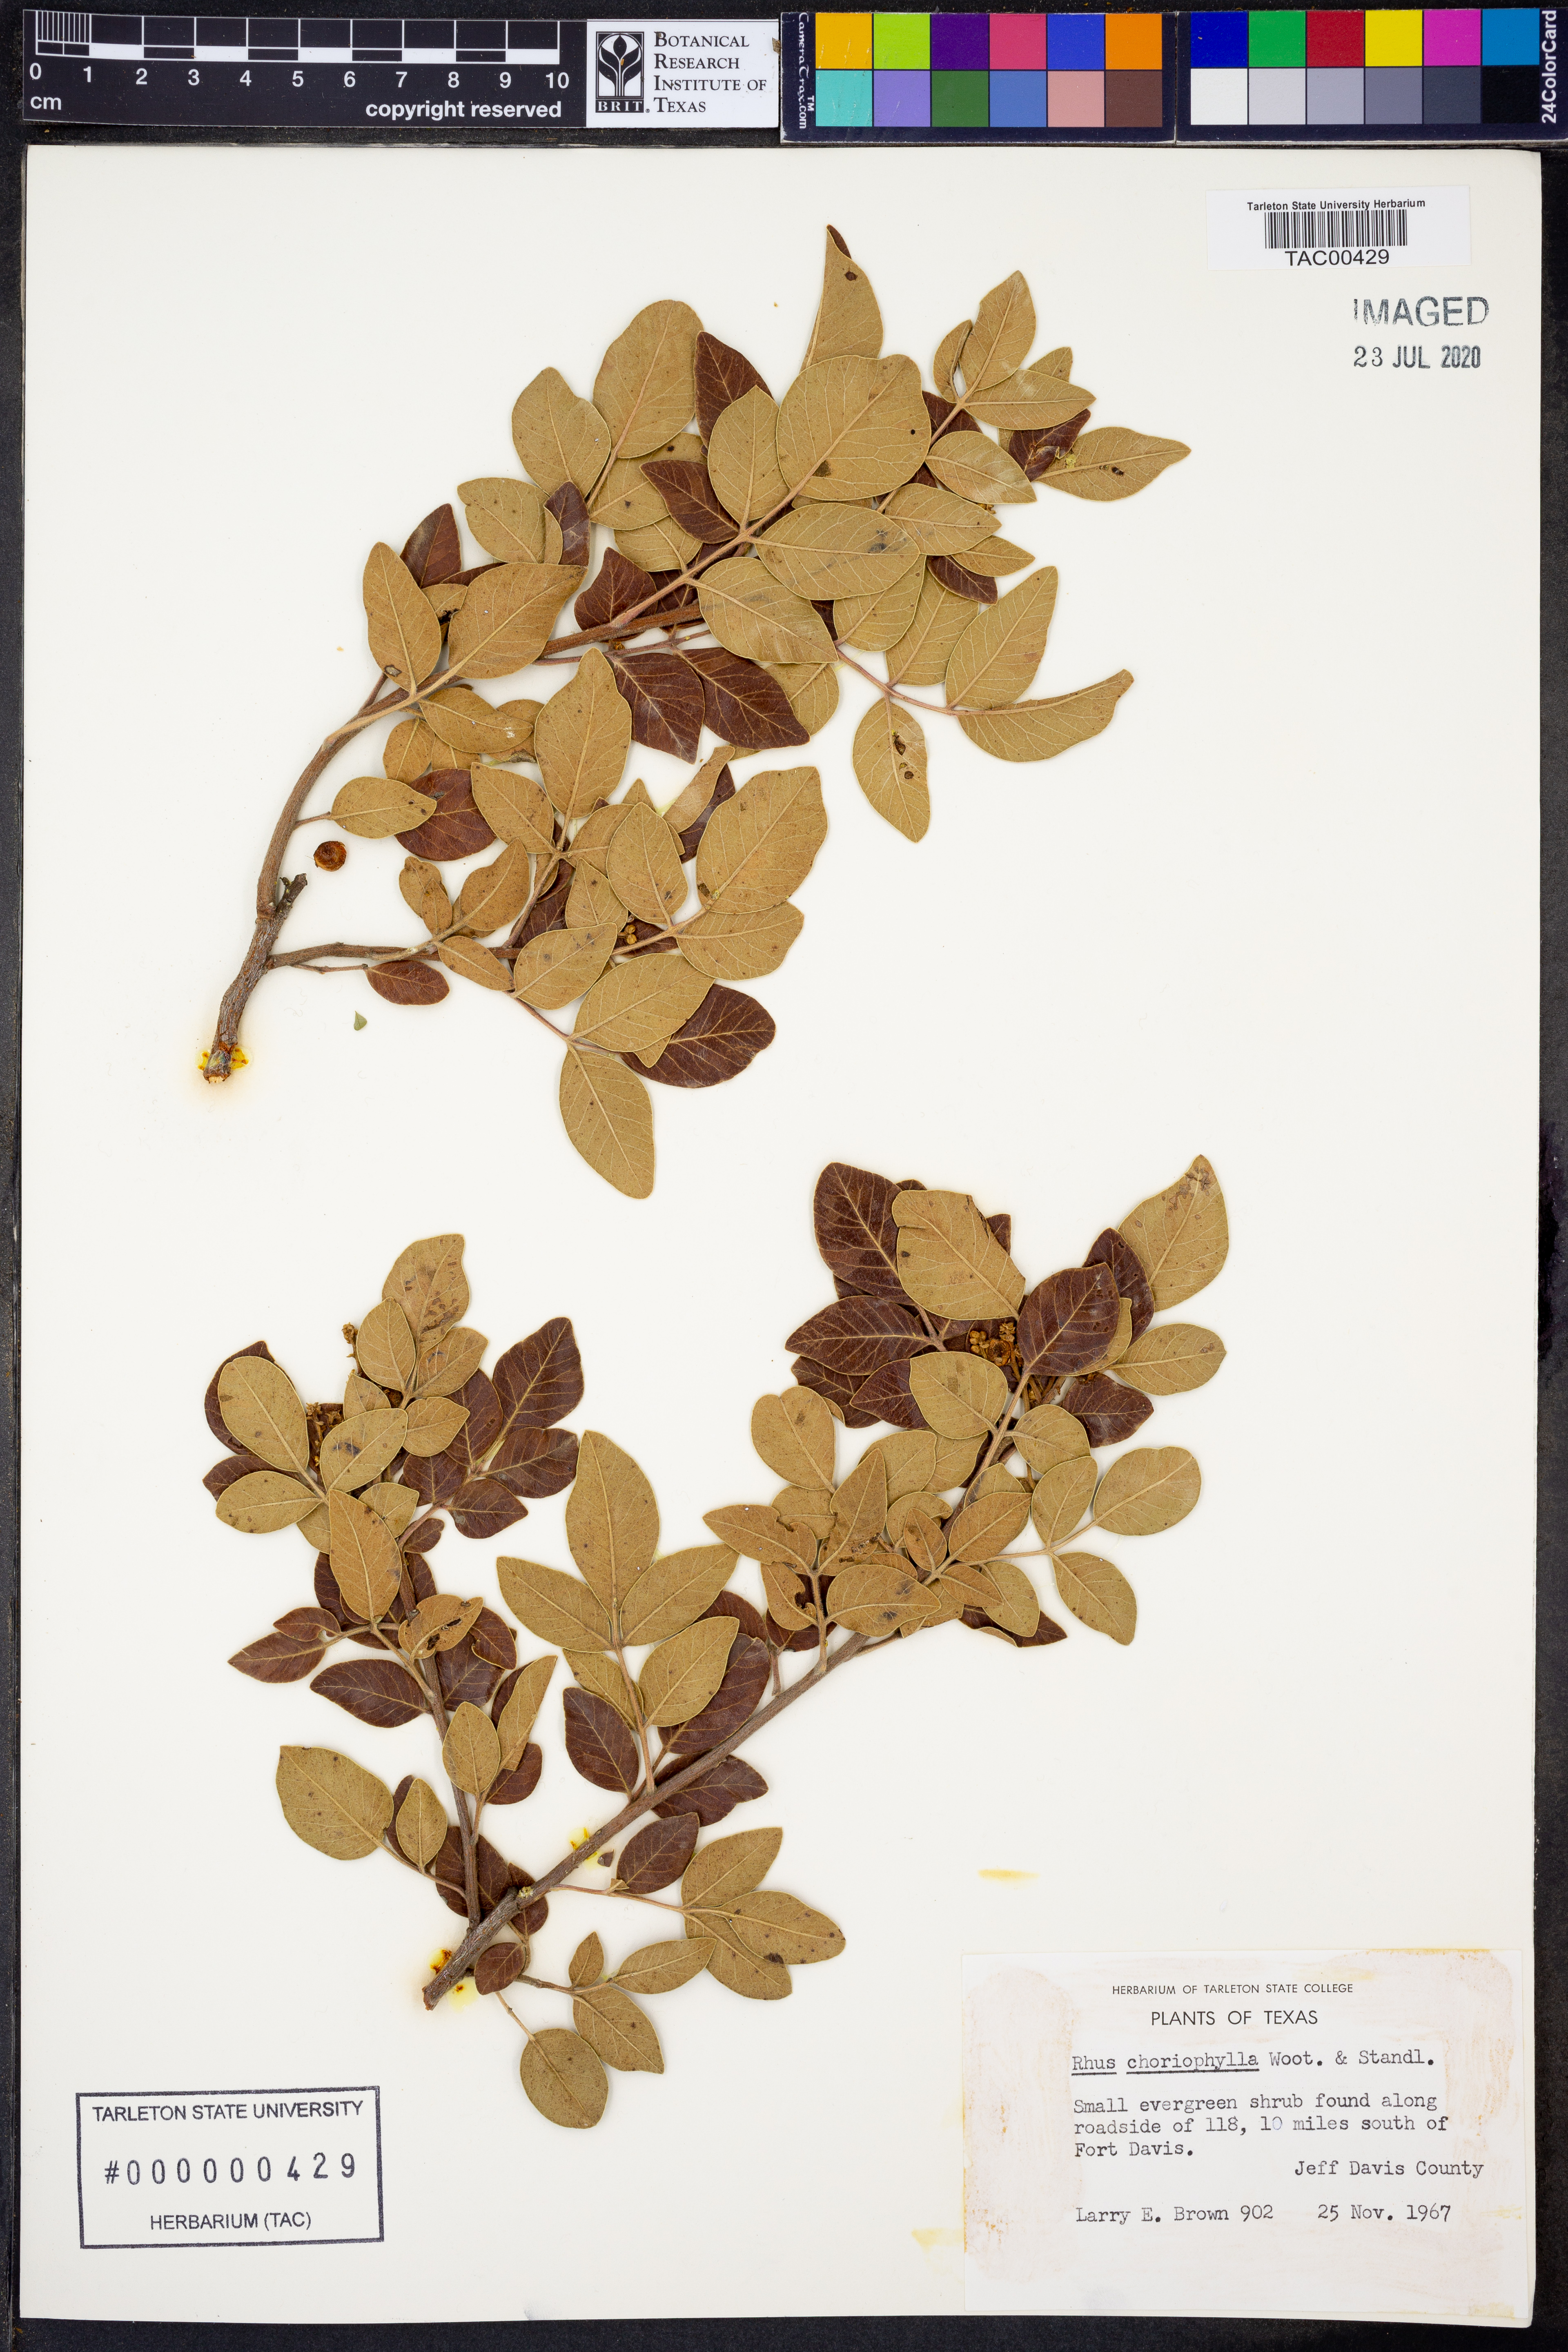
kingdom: Plantae
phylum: Tracheophyta
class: Magnoliopsida
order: Sapindales
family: Anacardiaceae
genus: Rhus
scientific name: Rhus choriophylla
